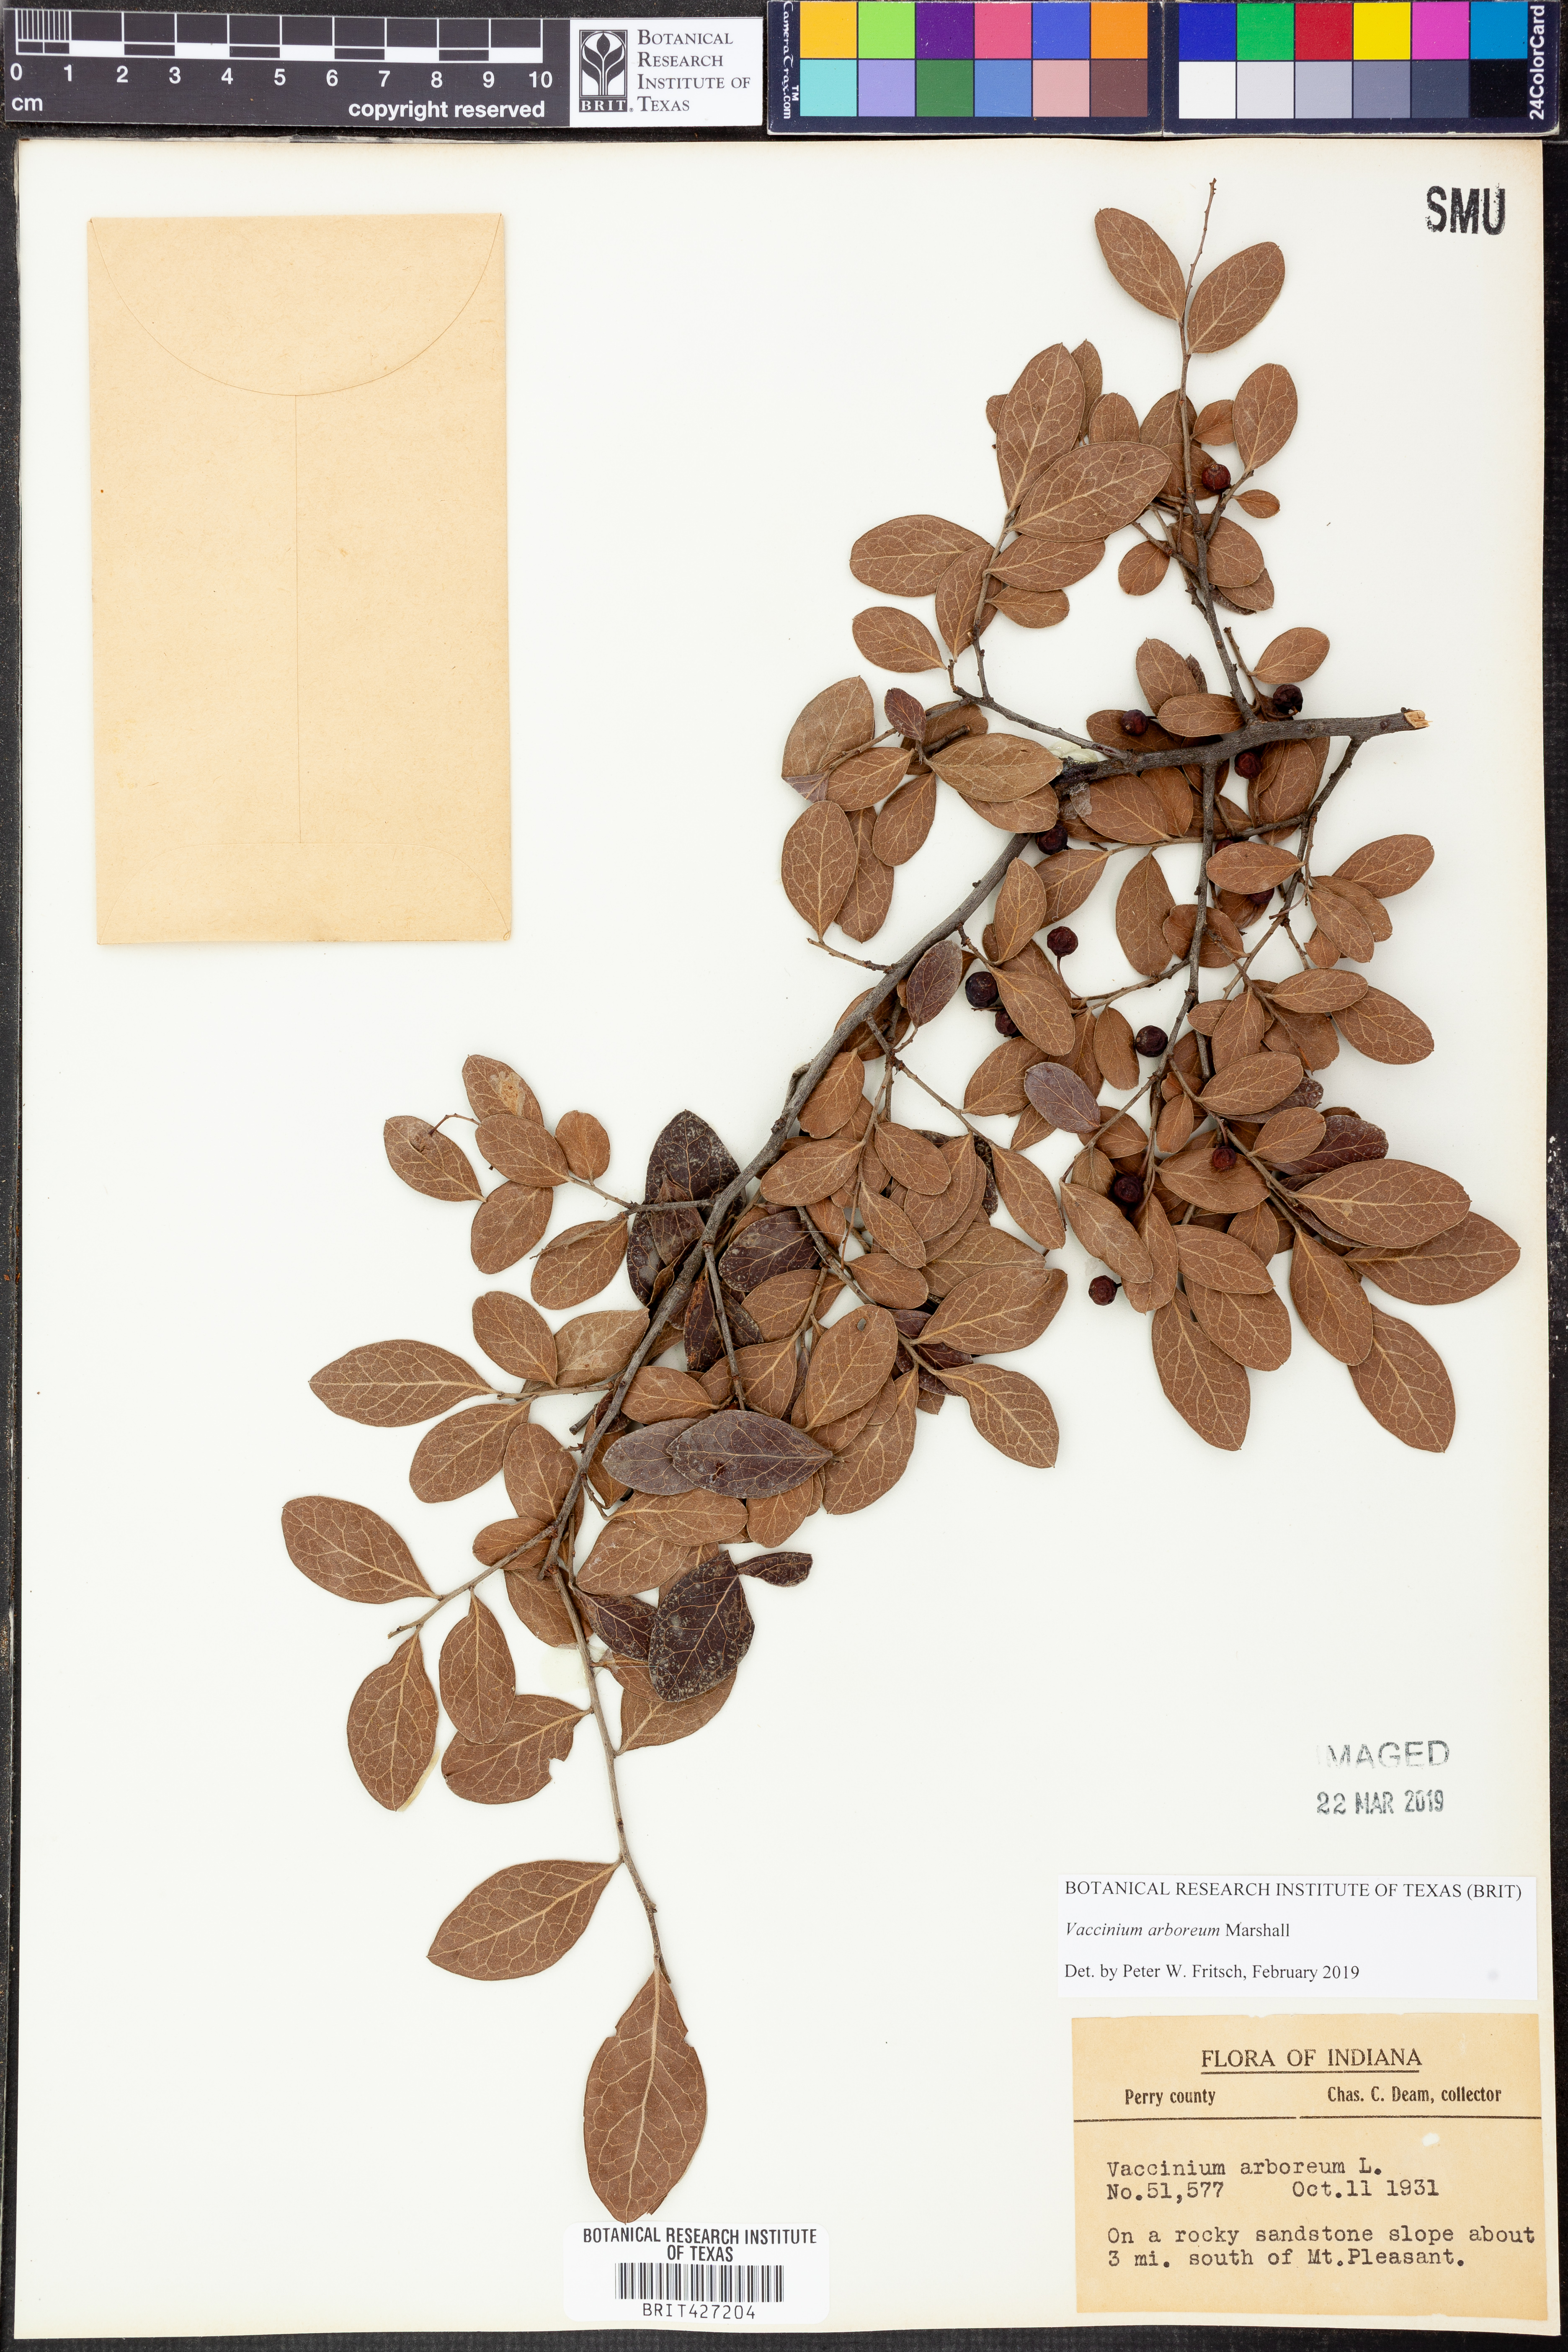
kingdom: Plantae
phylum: Tracheophyta
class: Magnoliopsida
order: Ericales
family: Ericaceae
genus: Vaccinium
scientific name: Vaccinium arboreum
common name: Farkleberry
